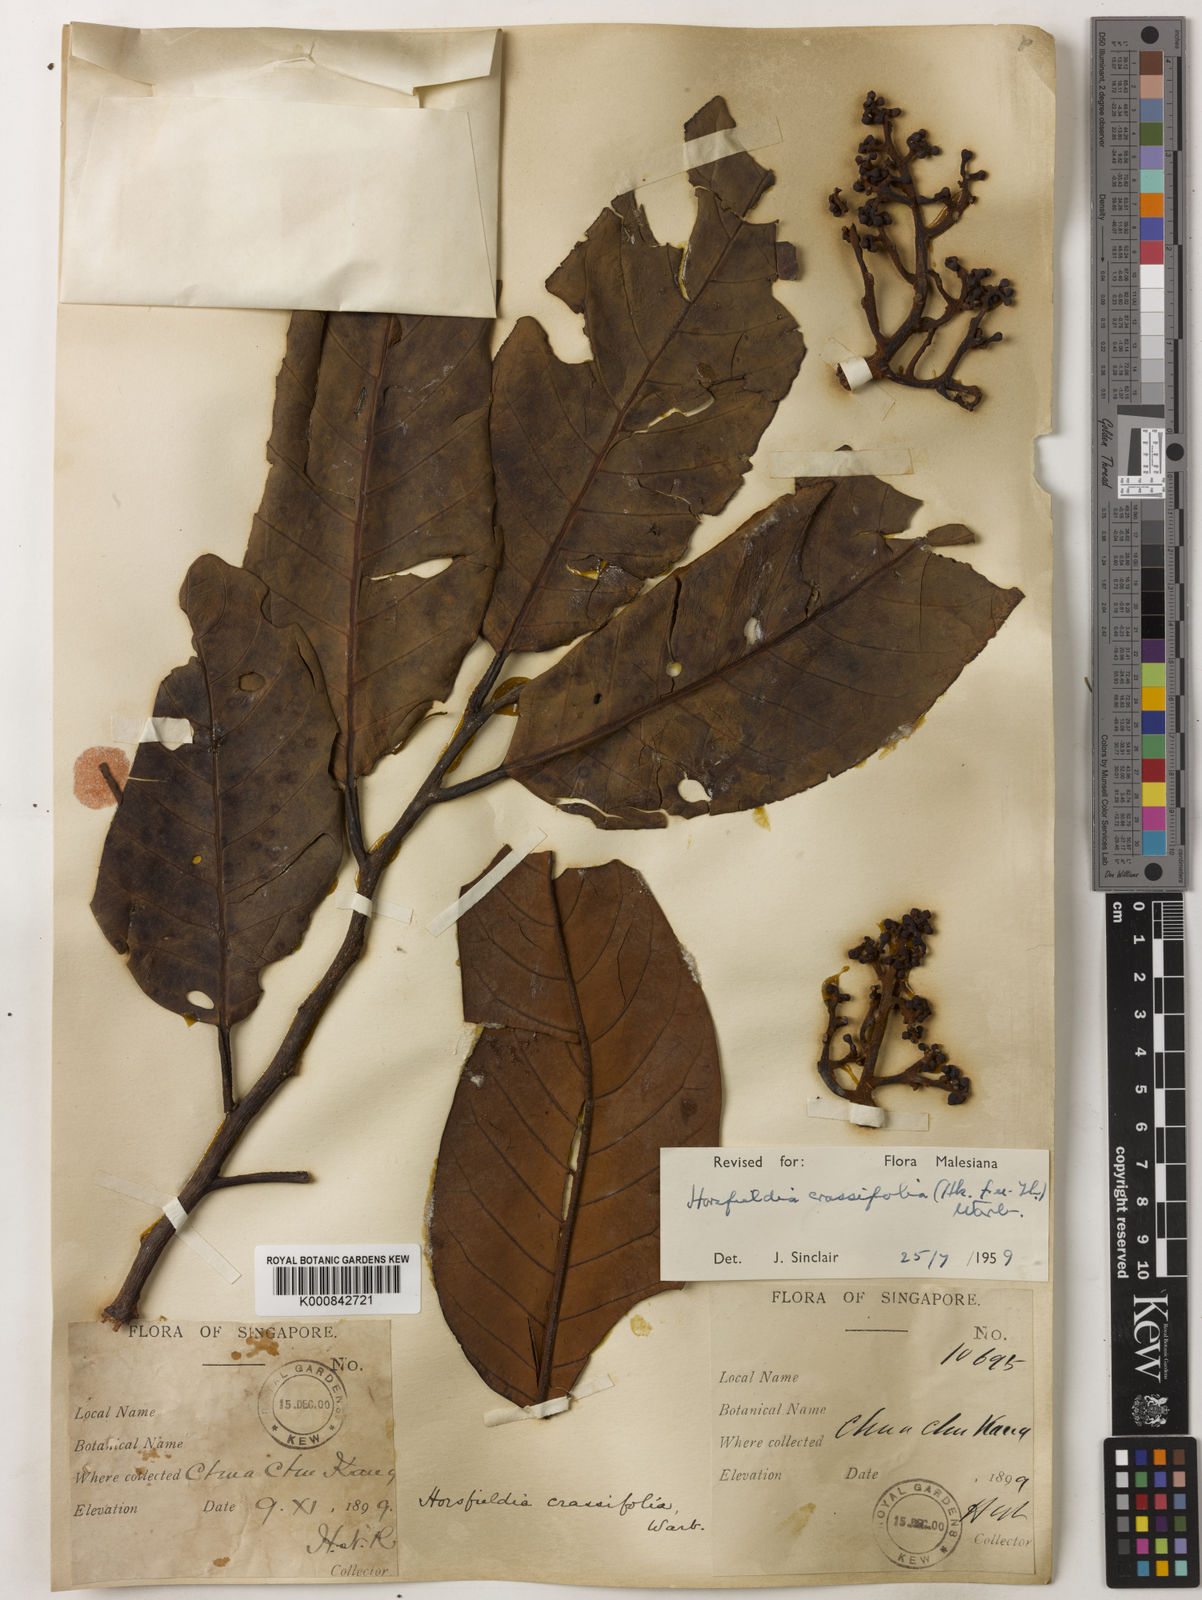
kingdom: Plantae
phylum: Tracheophyta
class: Magnoliopsida
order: Magnoliales
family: Myristicaceae
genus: Horsfieldia
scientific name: Horsfieldia crassifolia
